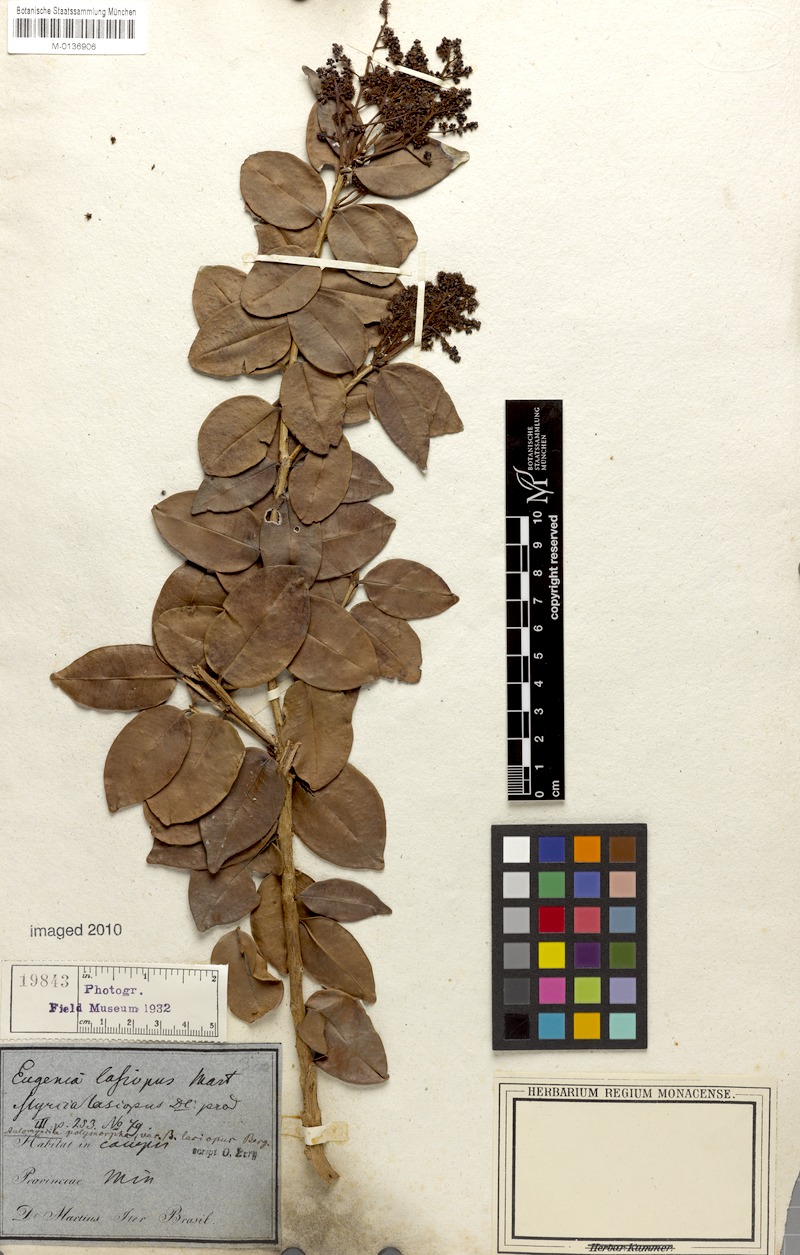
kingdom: Plantae
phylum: Tracheophyta
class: Magnoliopsida
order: Myrtales
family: Myrtaceae
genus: Myrcia
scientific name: Myrcia decorticans
